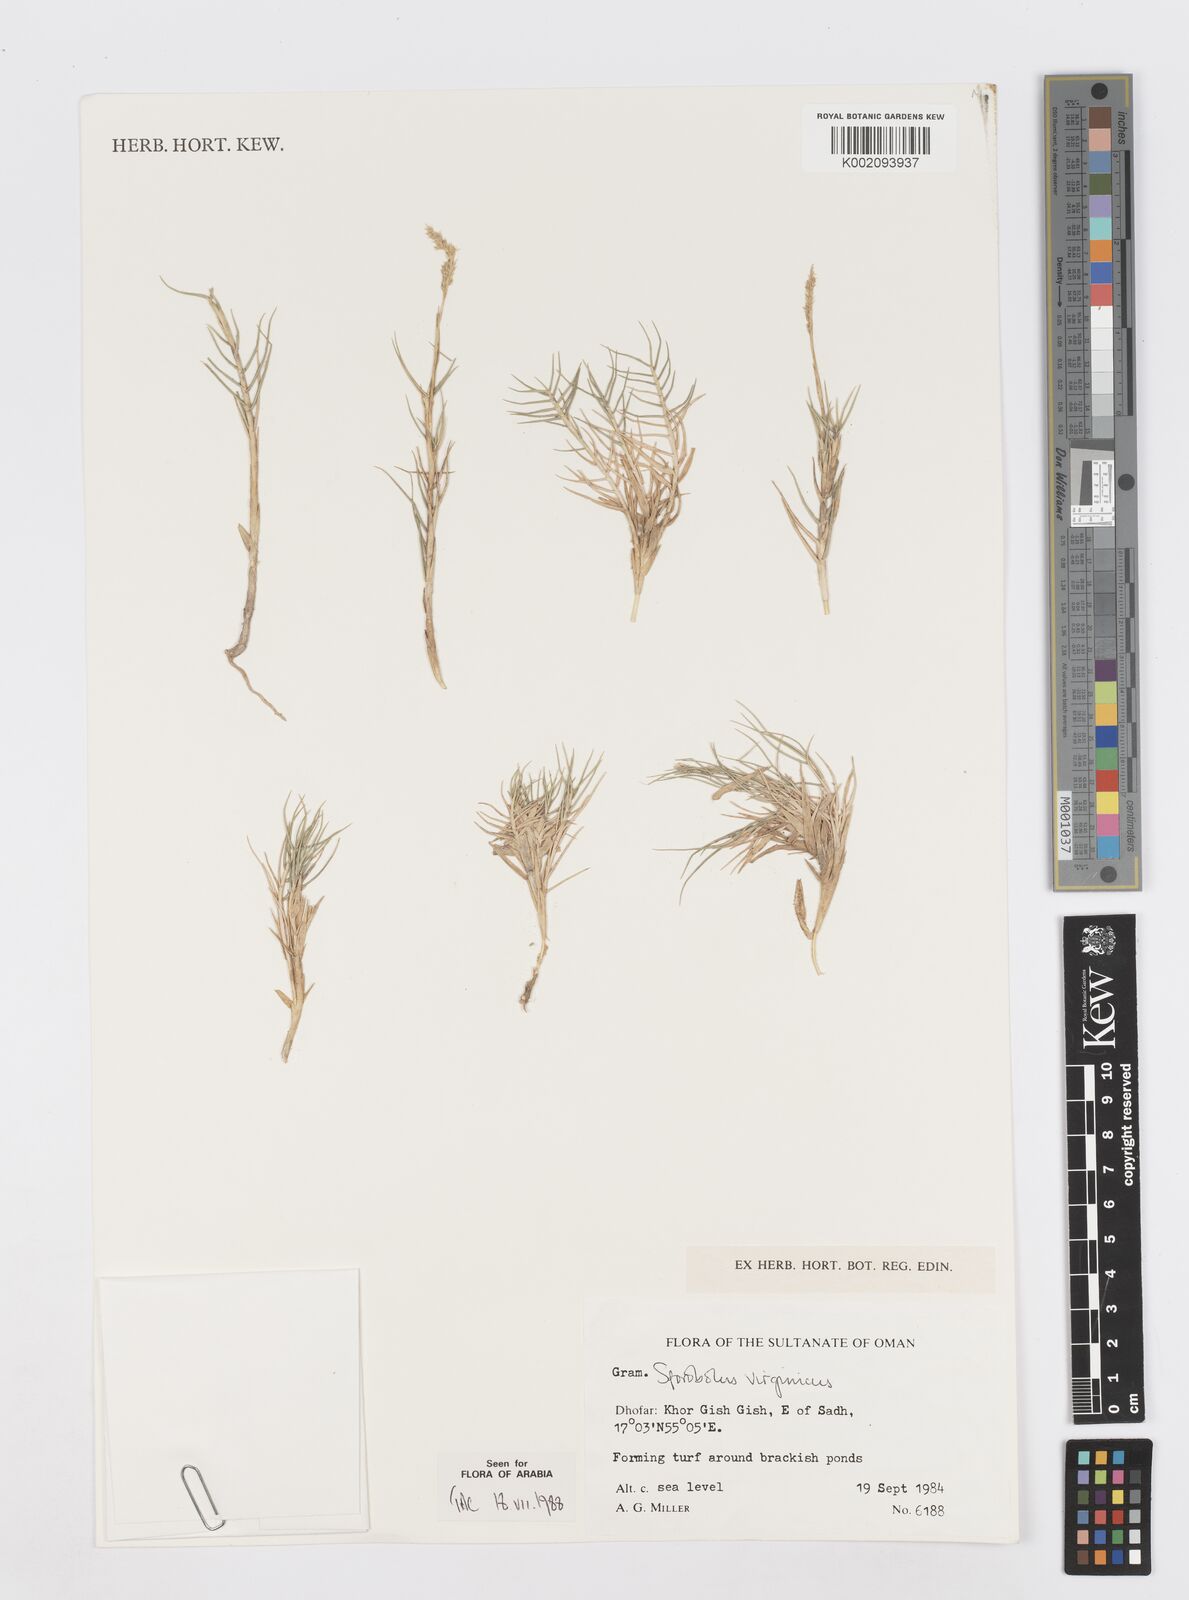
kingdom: Plantae
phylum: Tracheophyta
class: Liliopsida
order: Poales
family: Poaceae
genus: Sporobolus
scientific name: Sporobolus virginicus
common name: Beach dropseed
